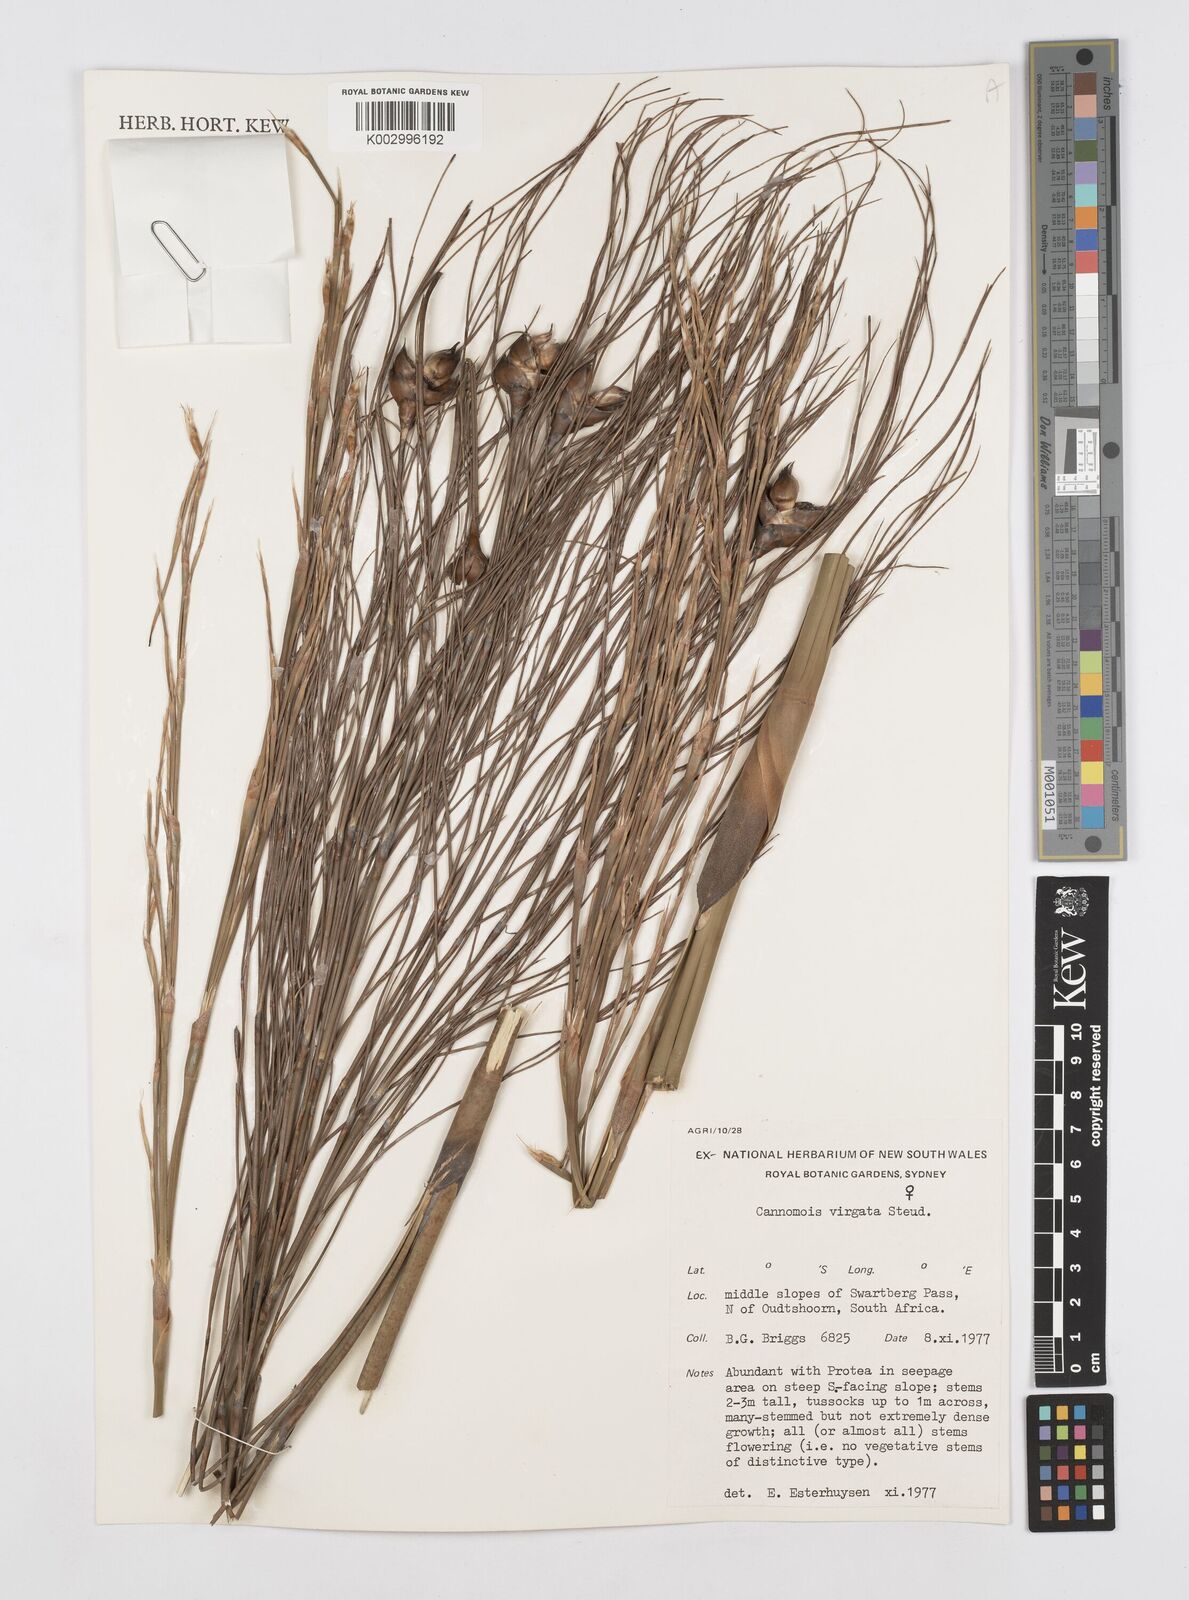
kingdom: Plantae
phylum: Tracheophyta
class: Liliopsida
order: Poales
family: Restionaceae
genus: Cannomois
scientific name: Cannomois virgata
